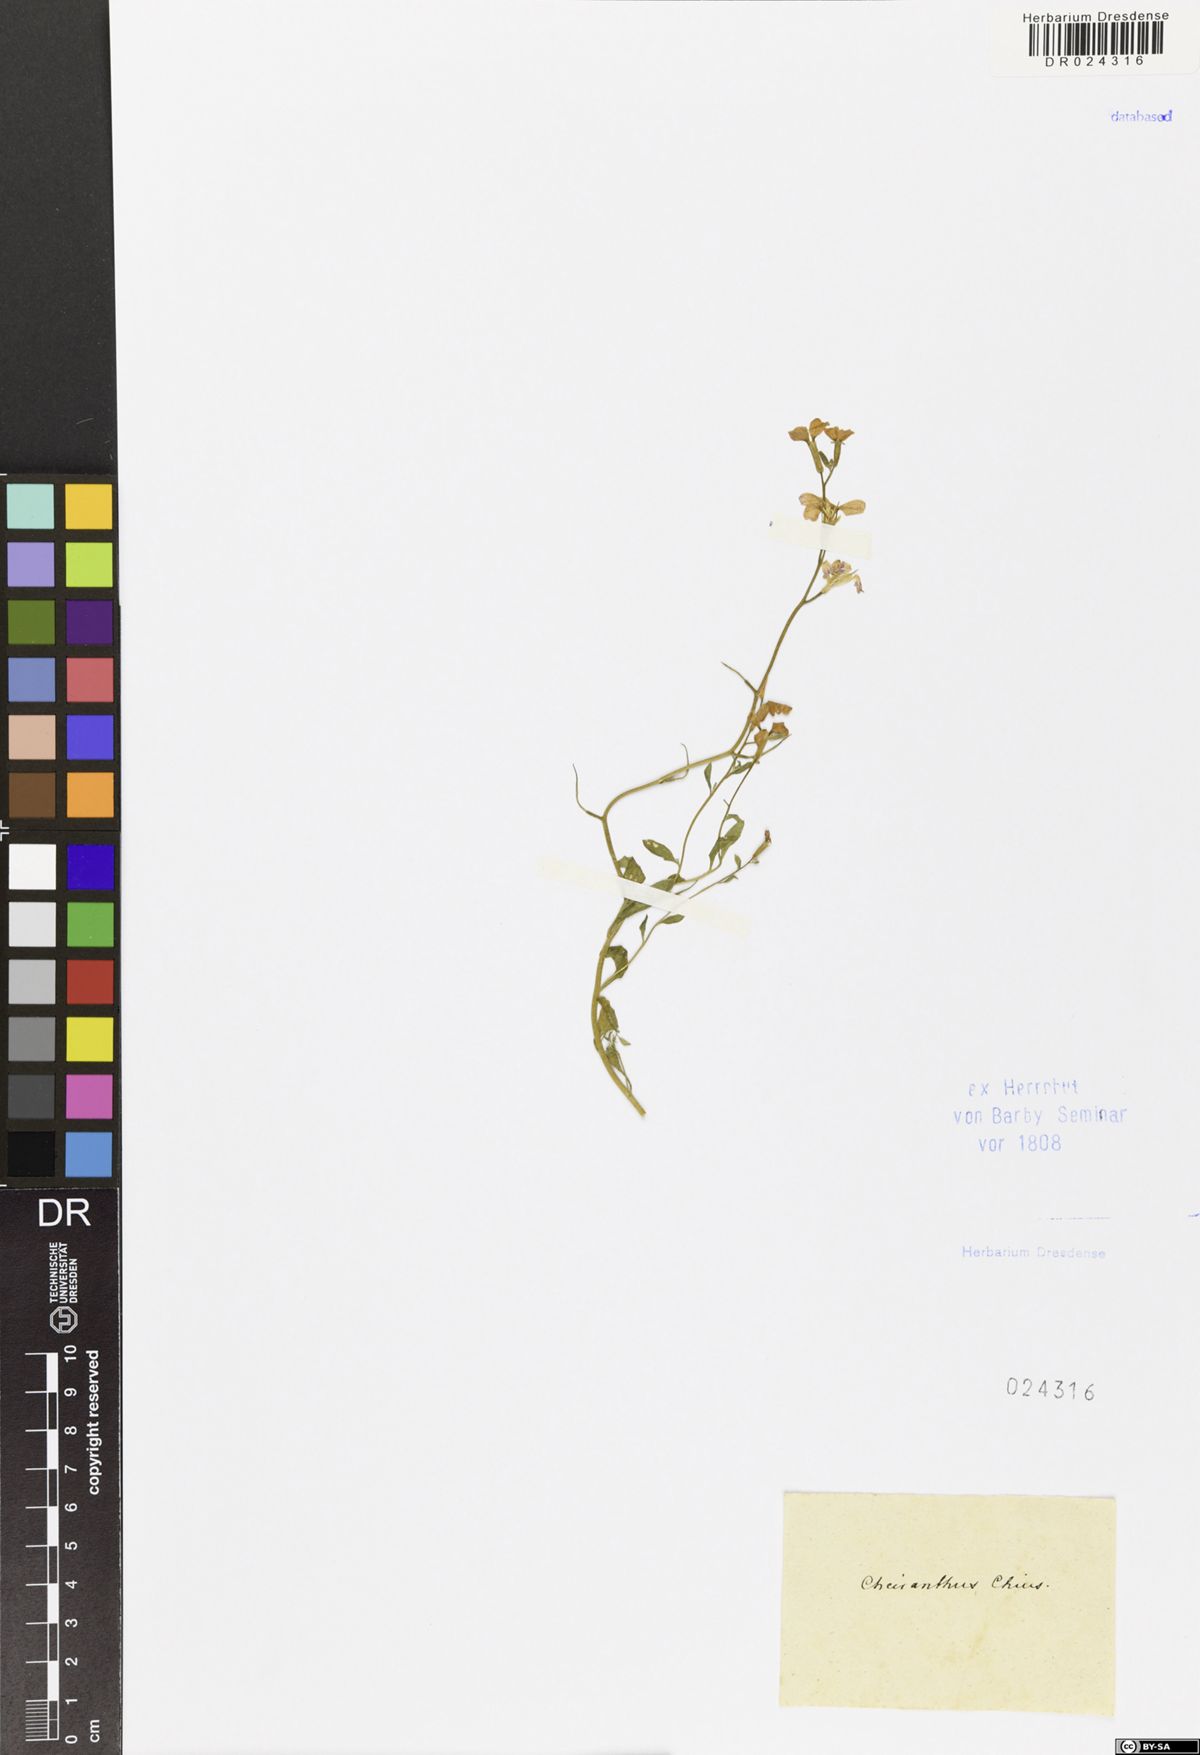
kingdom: Plantae
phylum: Tracheophyta
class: Magnoliopsida
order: Brassicales
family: Brassicaceae
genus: Malcolmia
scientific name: Malcolmia chia
